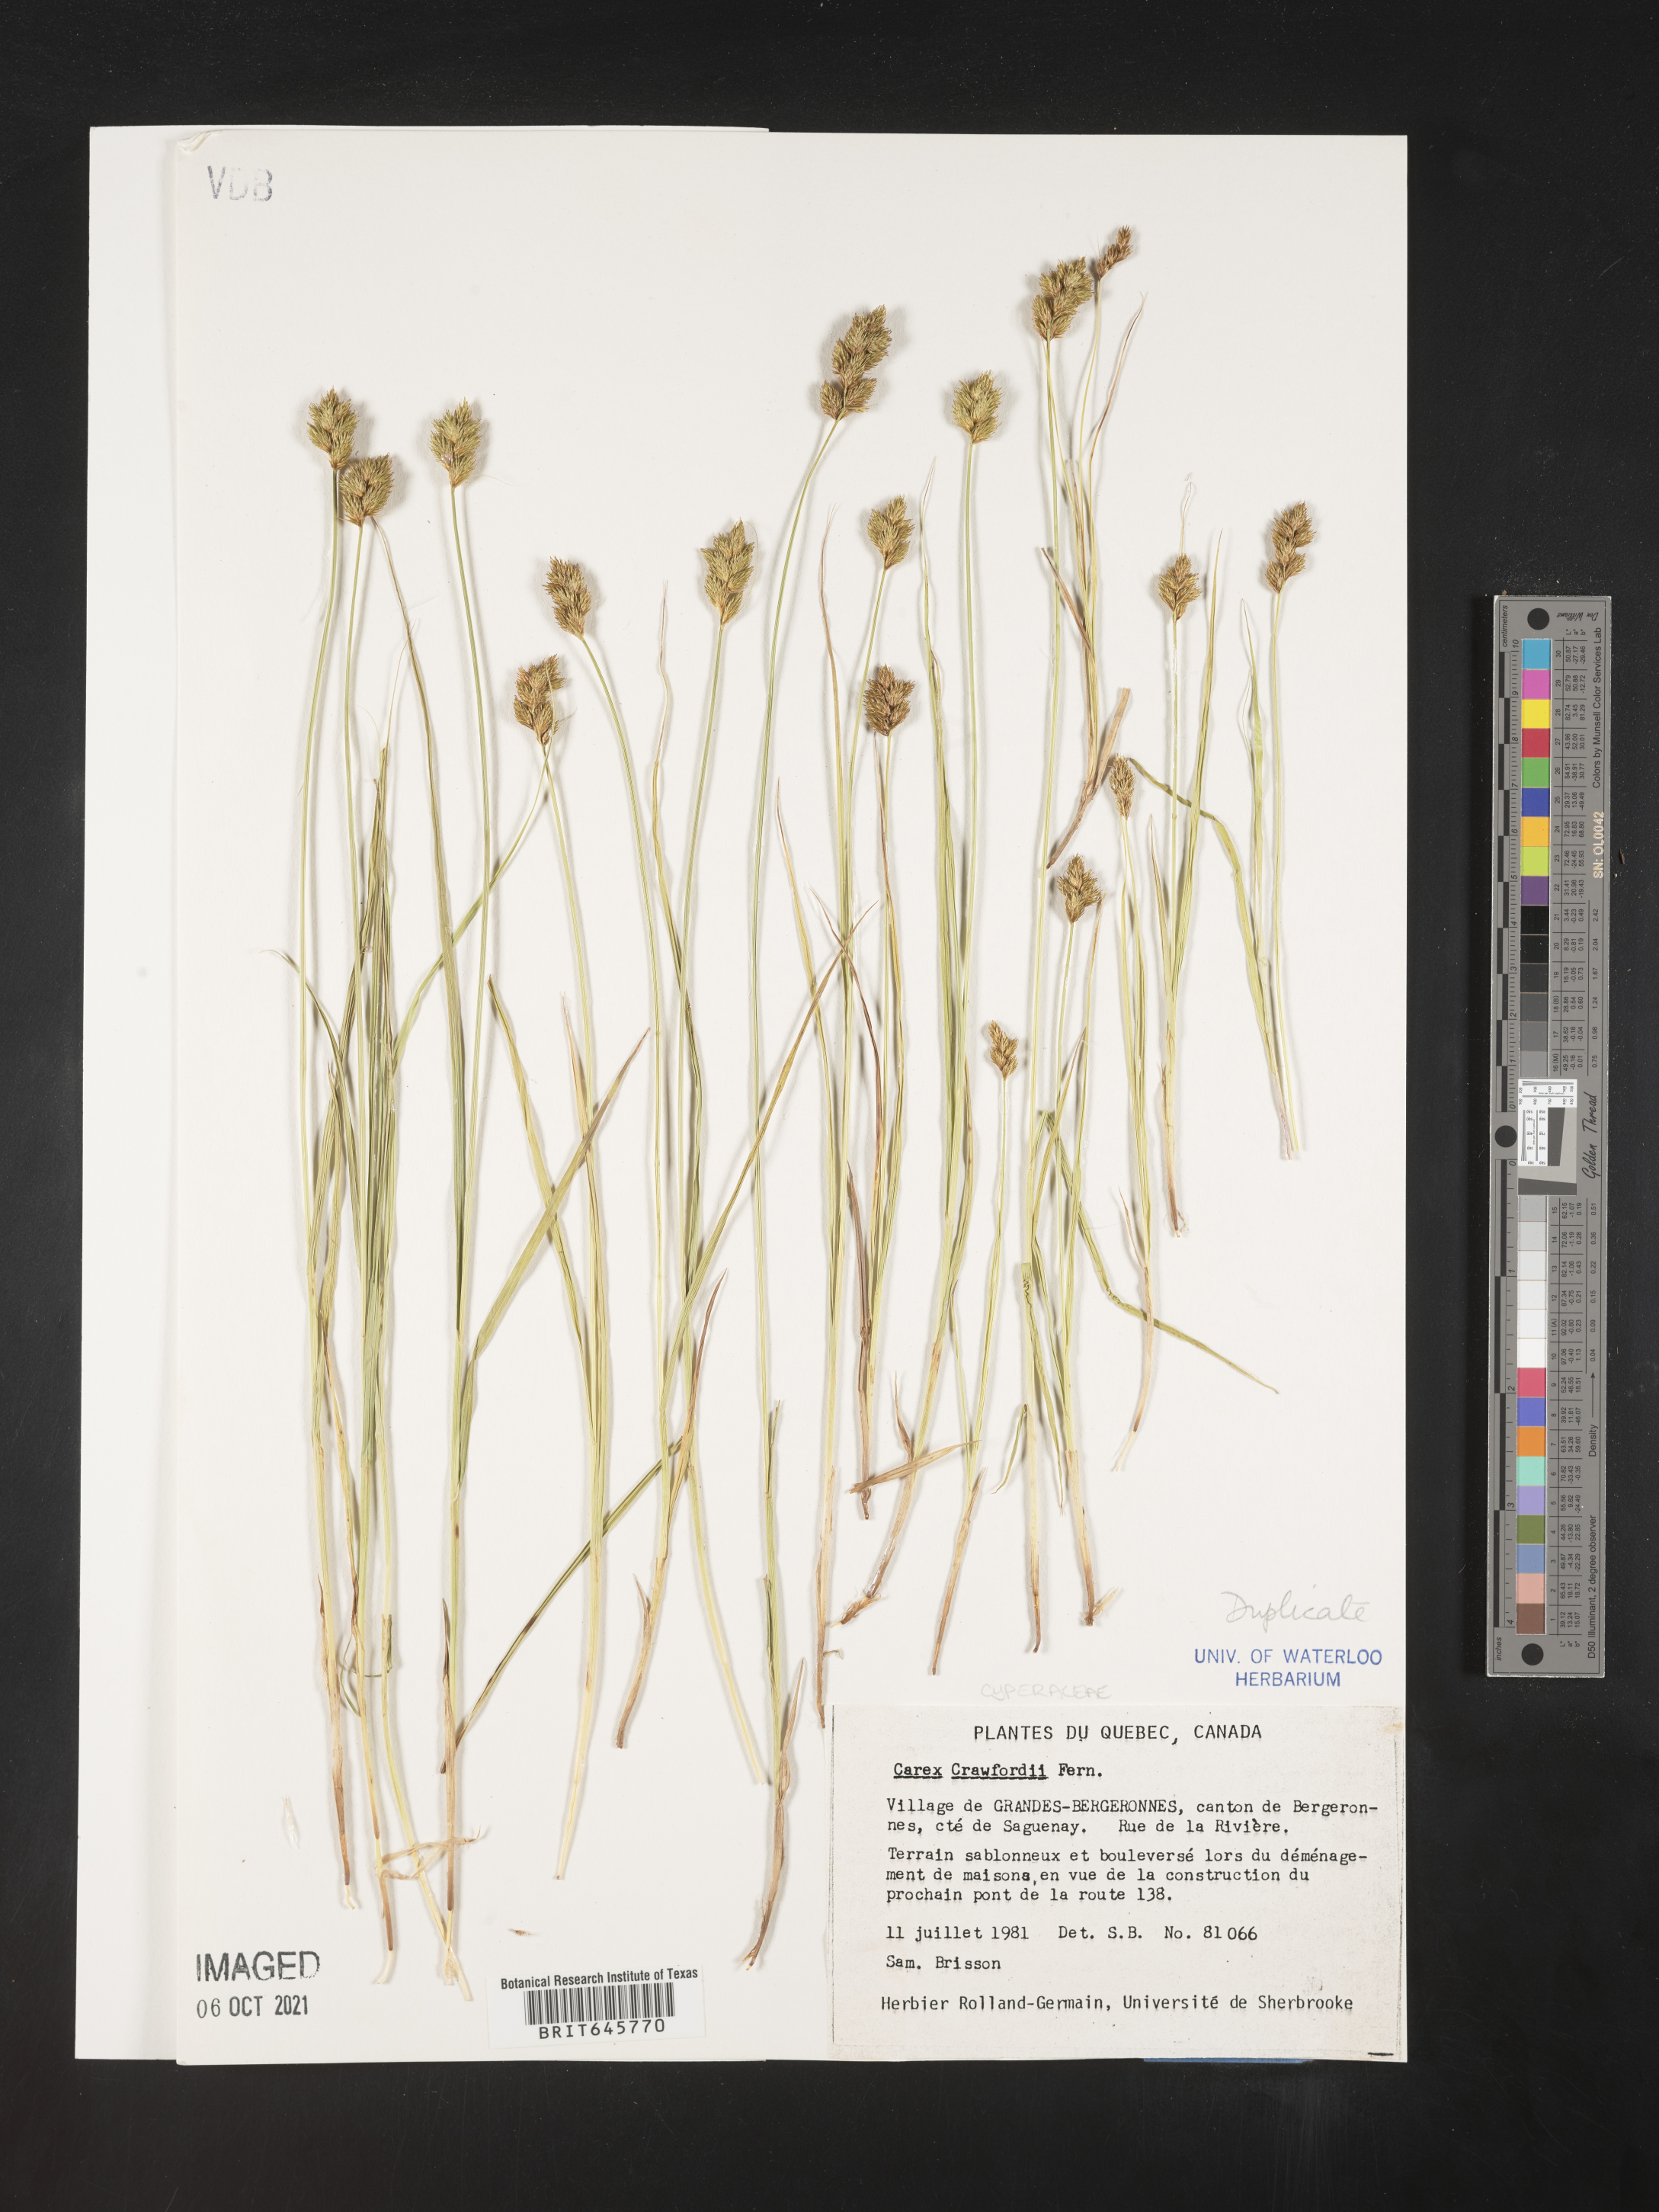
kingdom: Plantae
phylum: Tracheophyta
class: Liliopsida
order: Poales
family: Cyperaceae
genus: Carex
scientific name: Carex crawfordii
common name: Crawford's sedge
